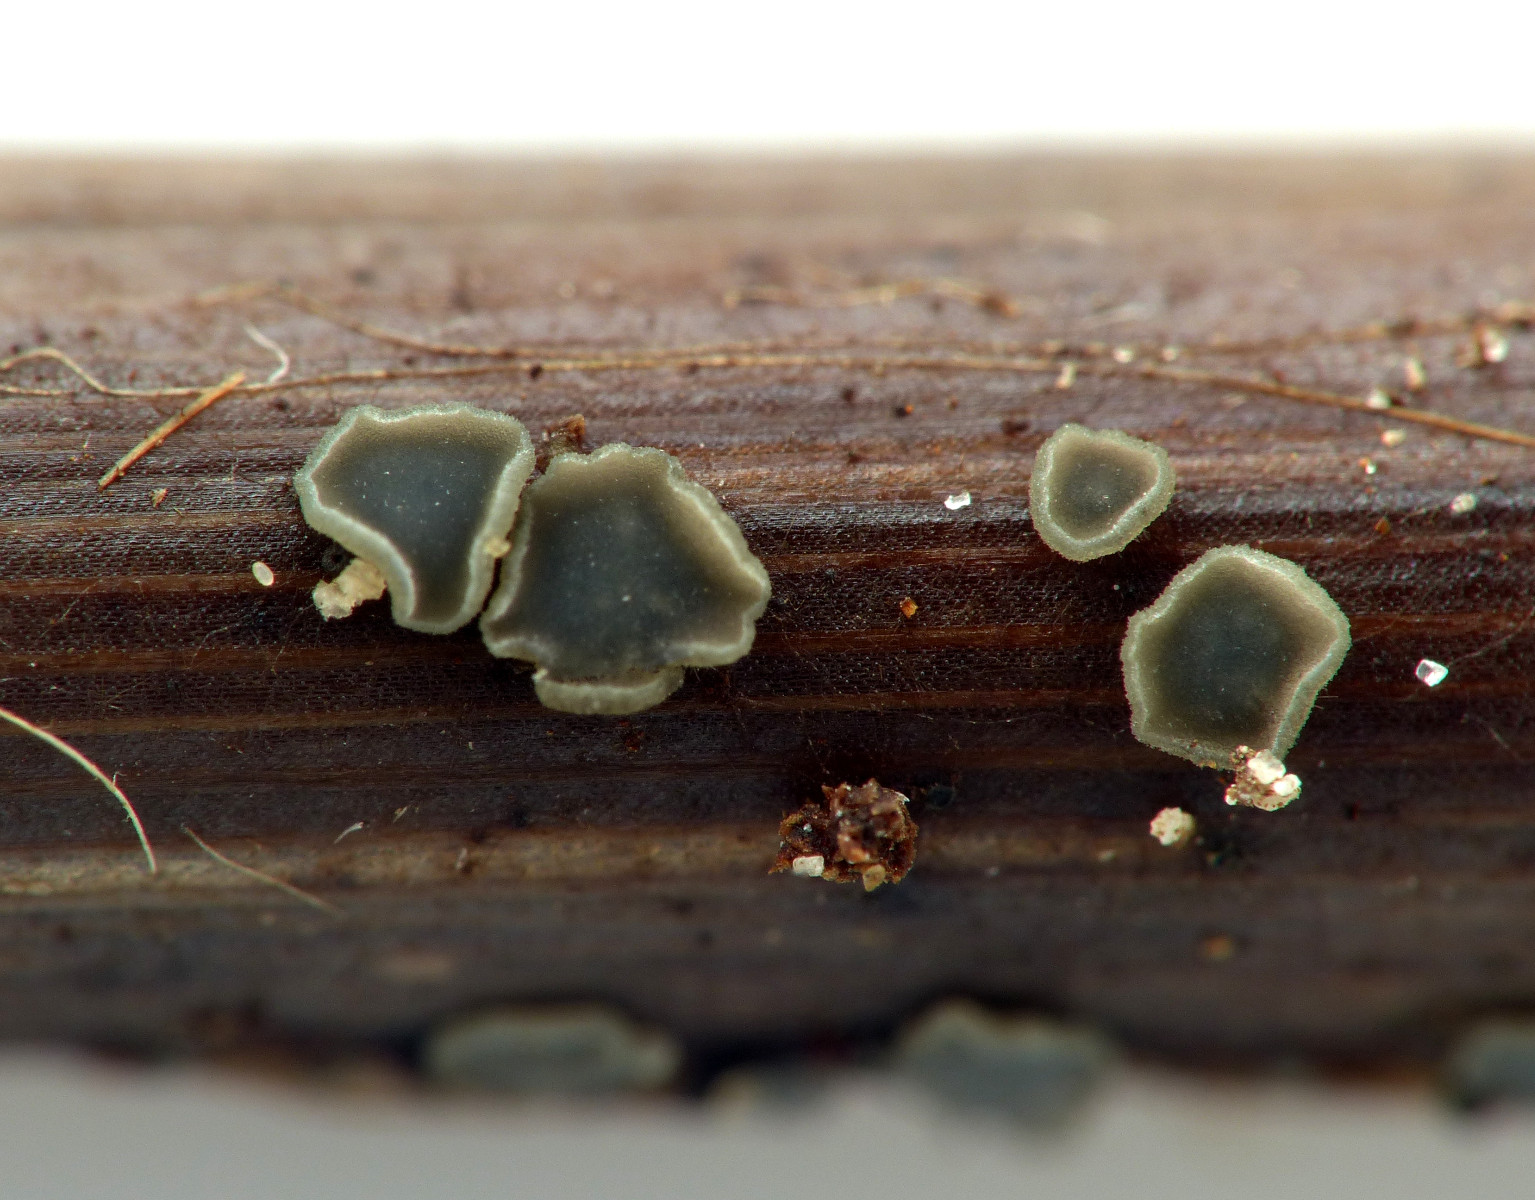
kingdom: Fungi
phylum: Ascomycota
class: Leotiomycetes
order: Helotiales
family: Mollisiaceae
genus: Mollisia
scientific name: Mollisia
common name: gråskive
